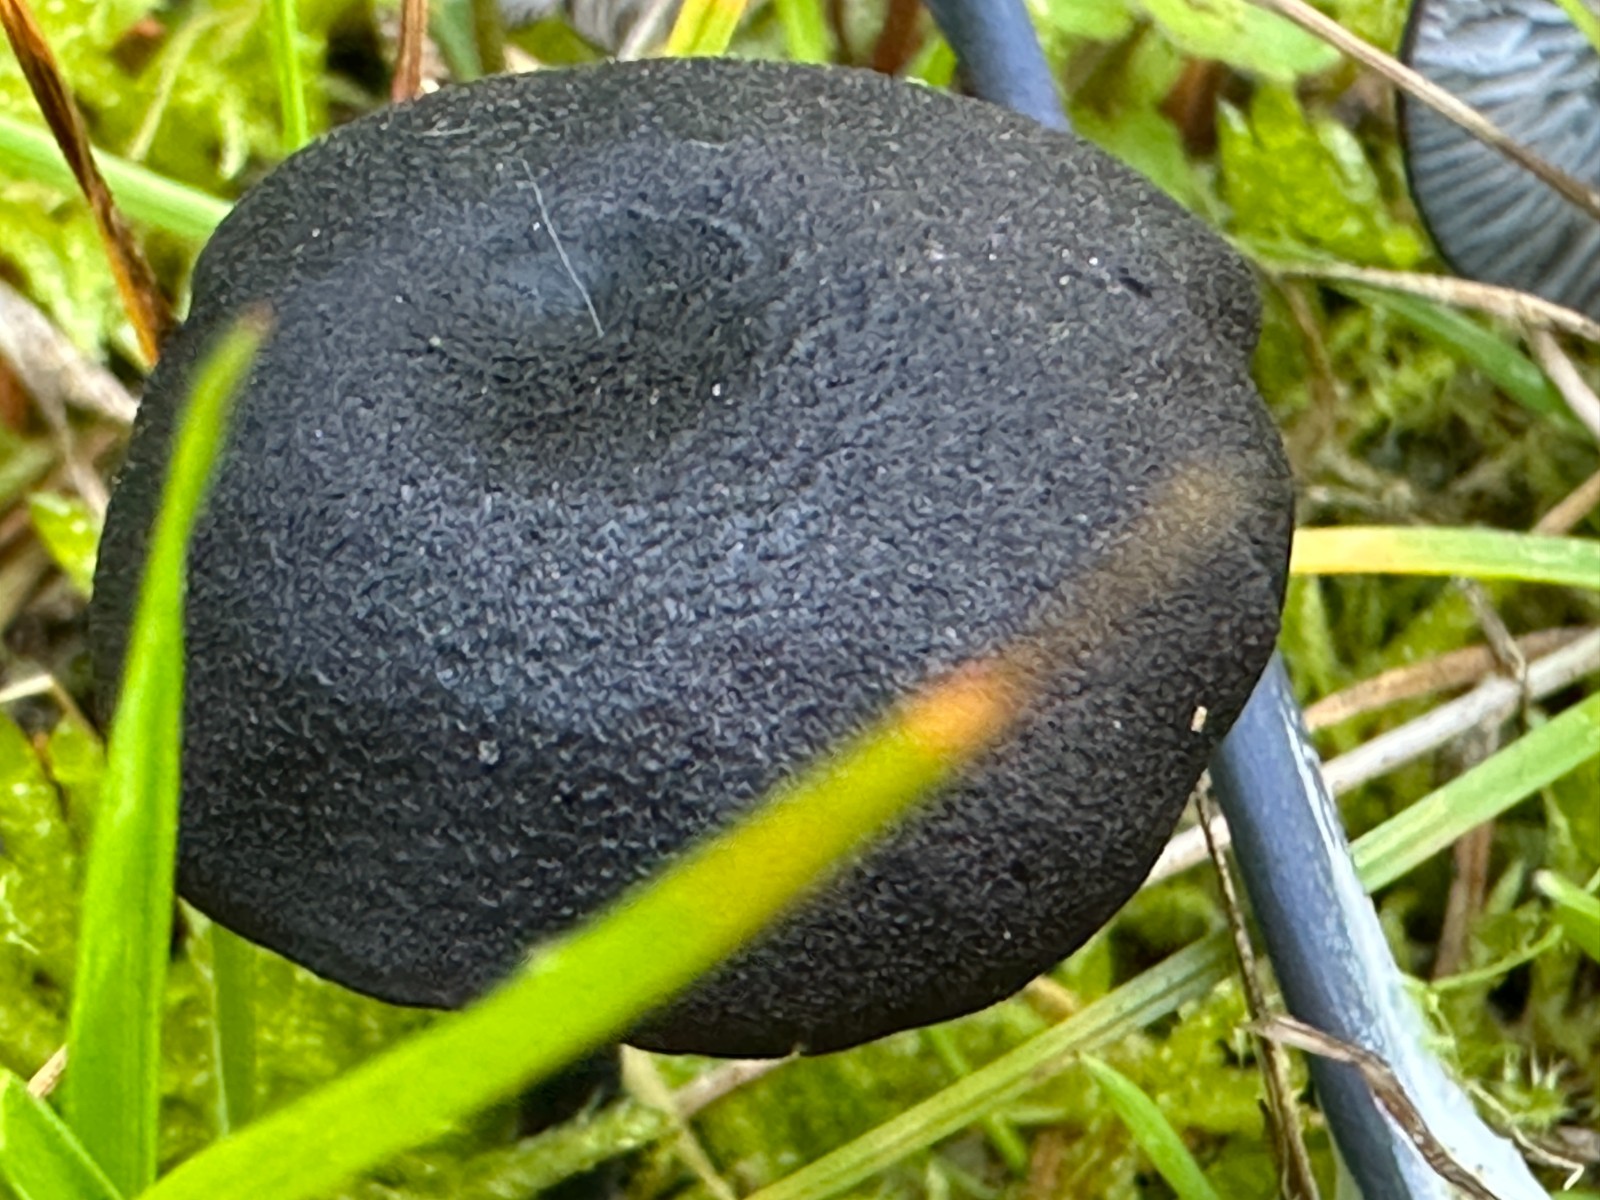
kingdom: Fungi
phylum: Basidiomycota
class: Agaricomycetes
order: Agaricales
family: Entolomataceae
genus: Entoloma
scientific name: Entoloma chalybeum
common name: blåbladet rødblad
